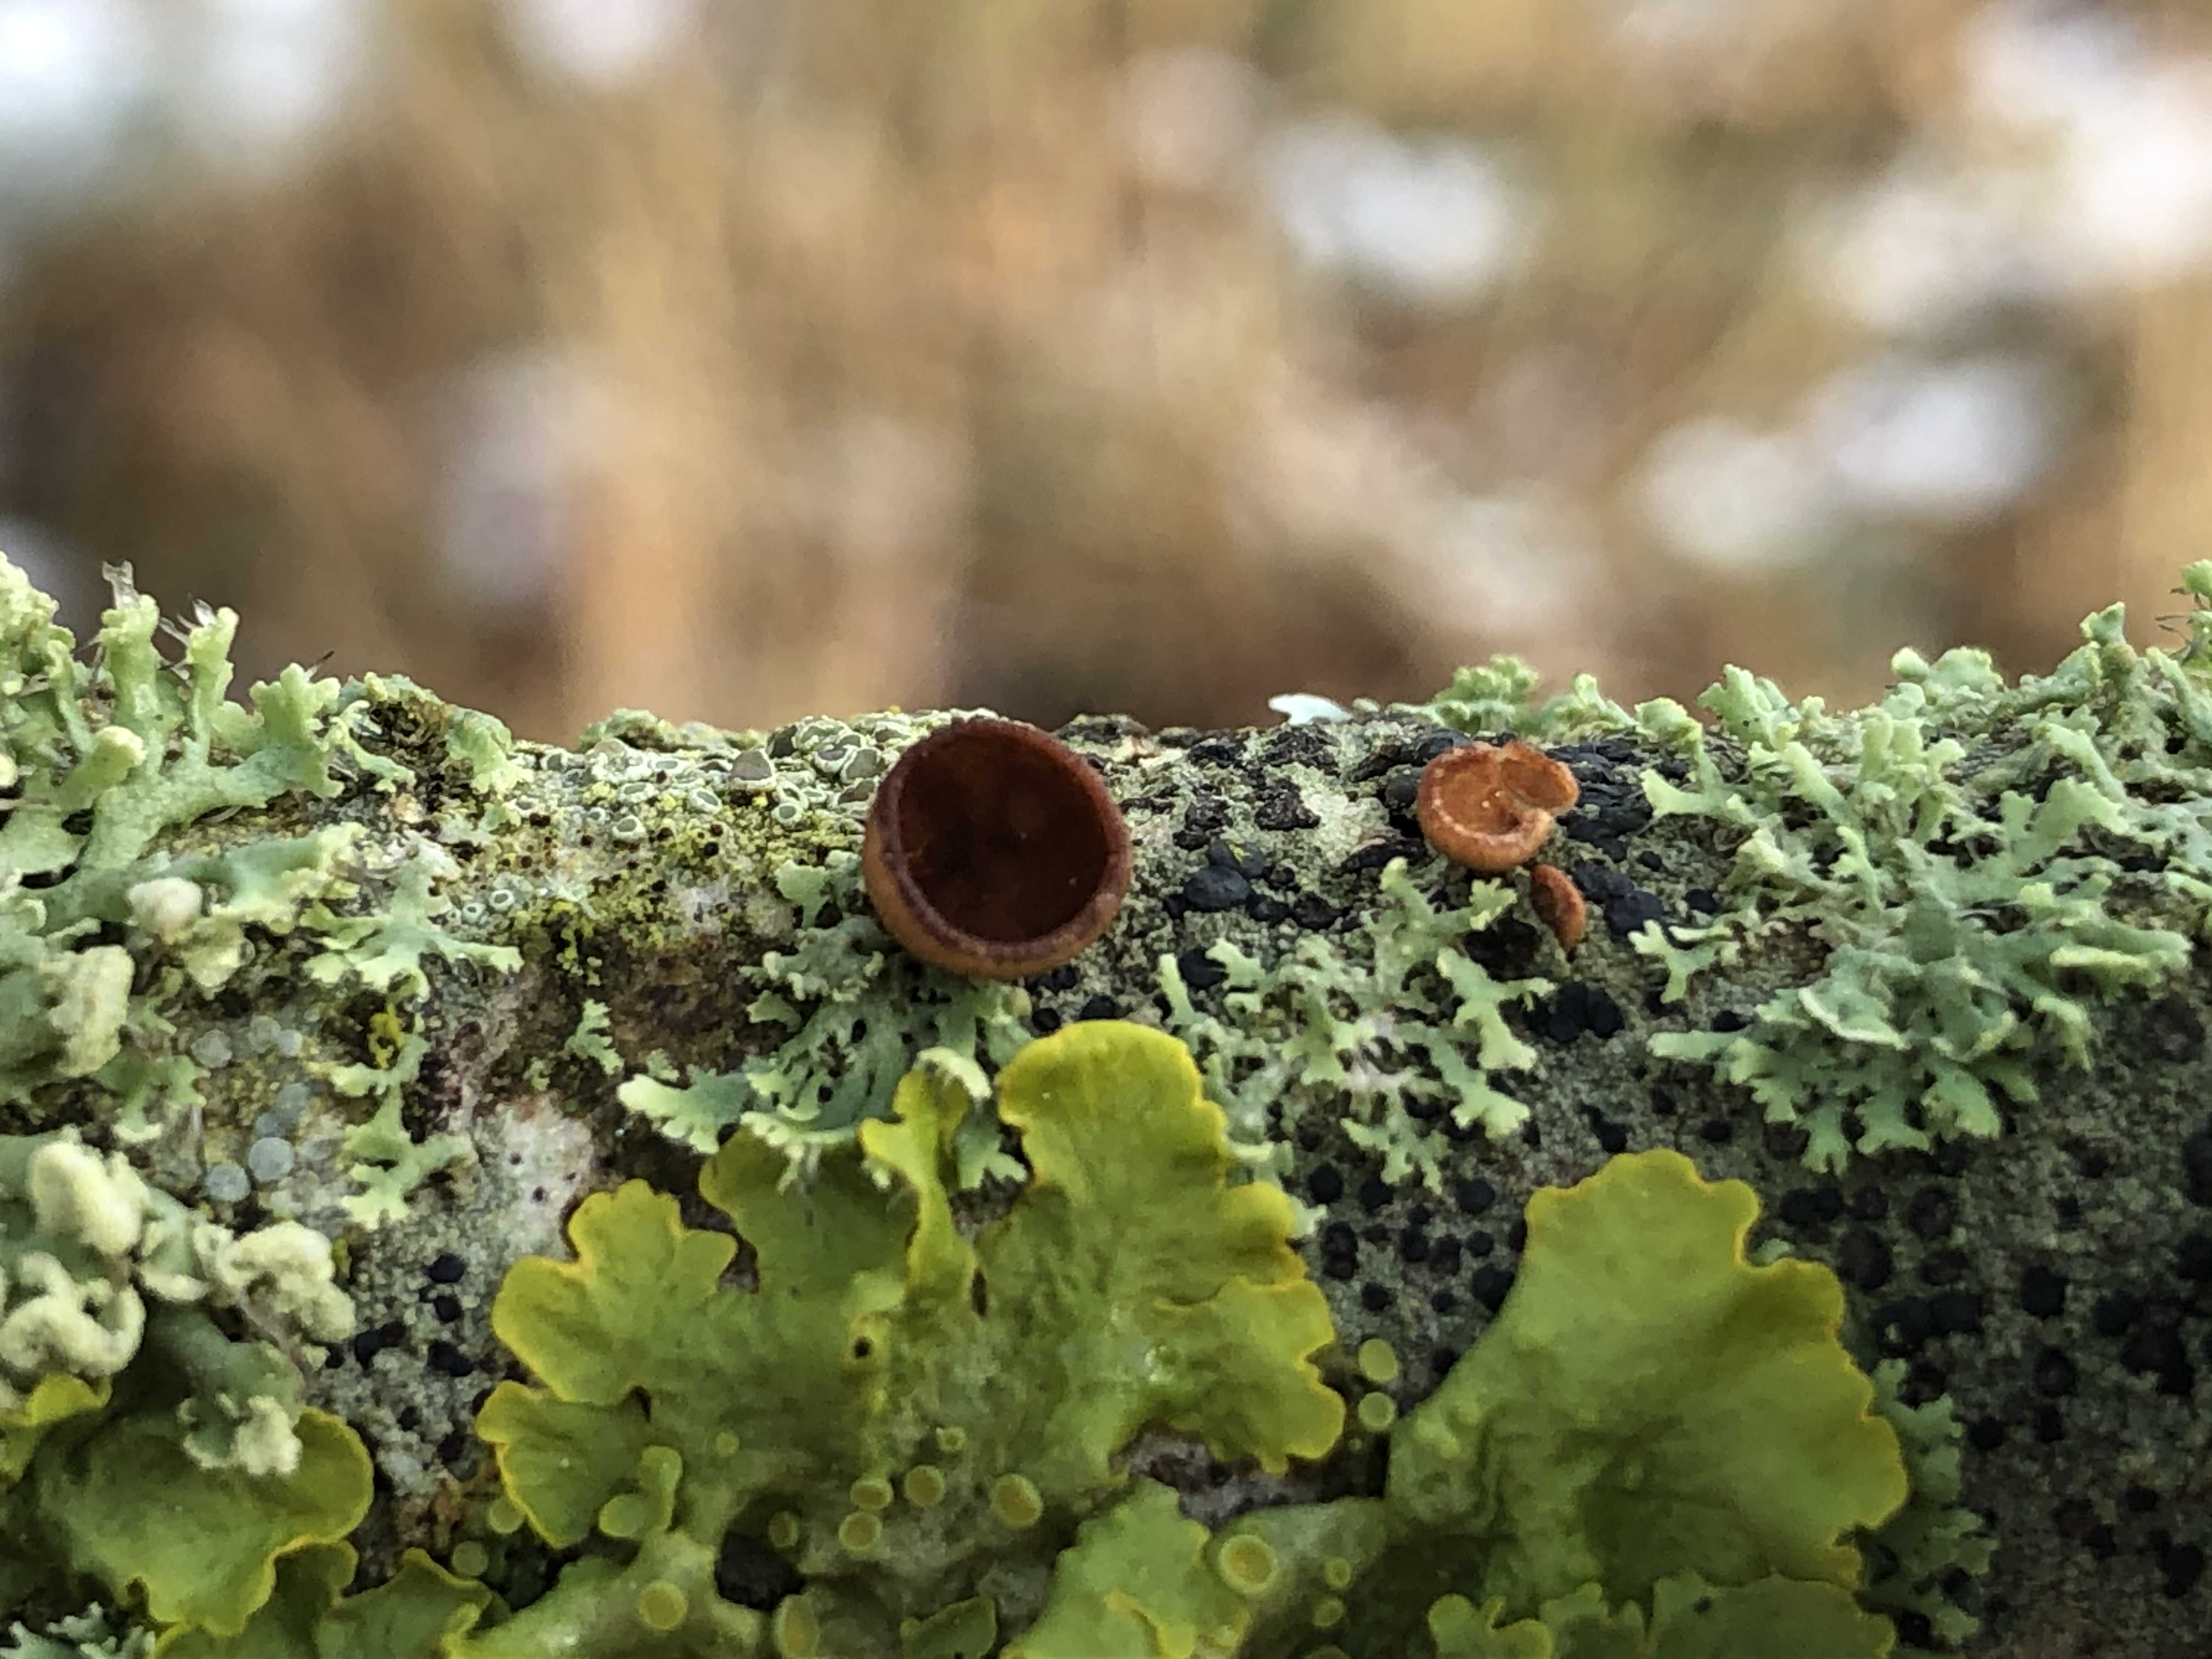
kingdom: Fungi
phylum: Ascomycota
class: Leotiomycetes
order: Helotiales
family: Rutstroemiaceae
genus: Rutstroemia
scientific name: Rutstroemia firma
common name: gren-brunskive
